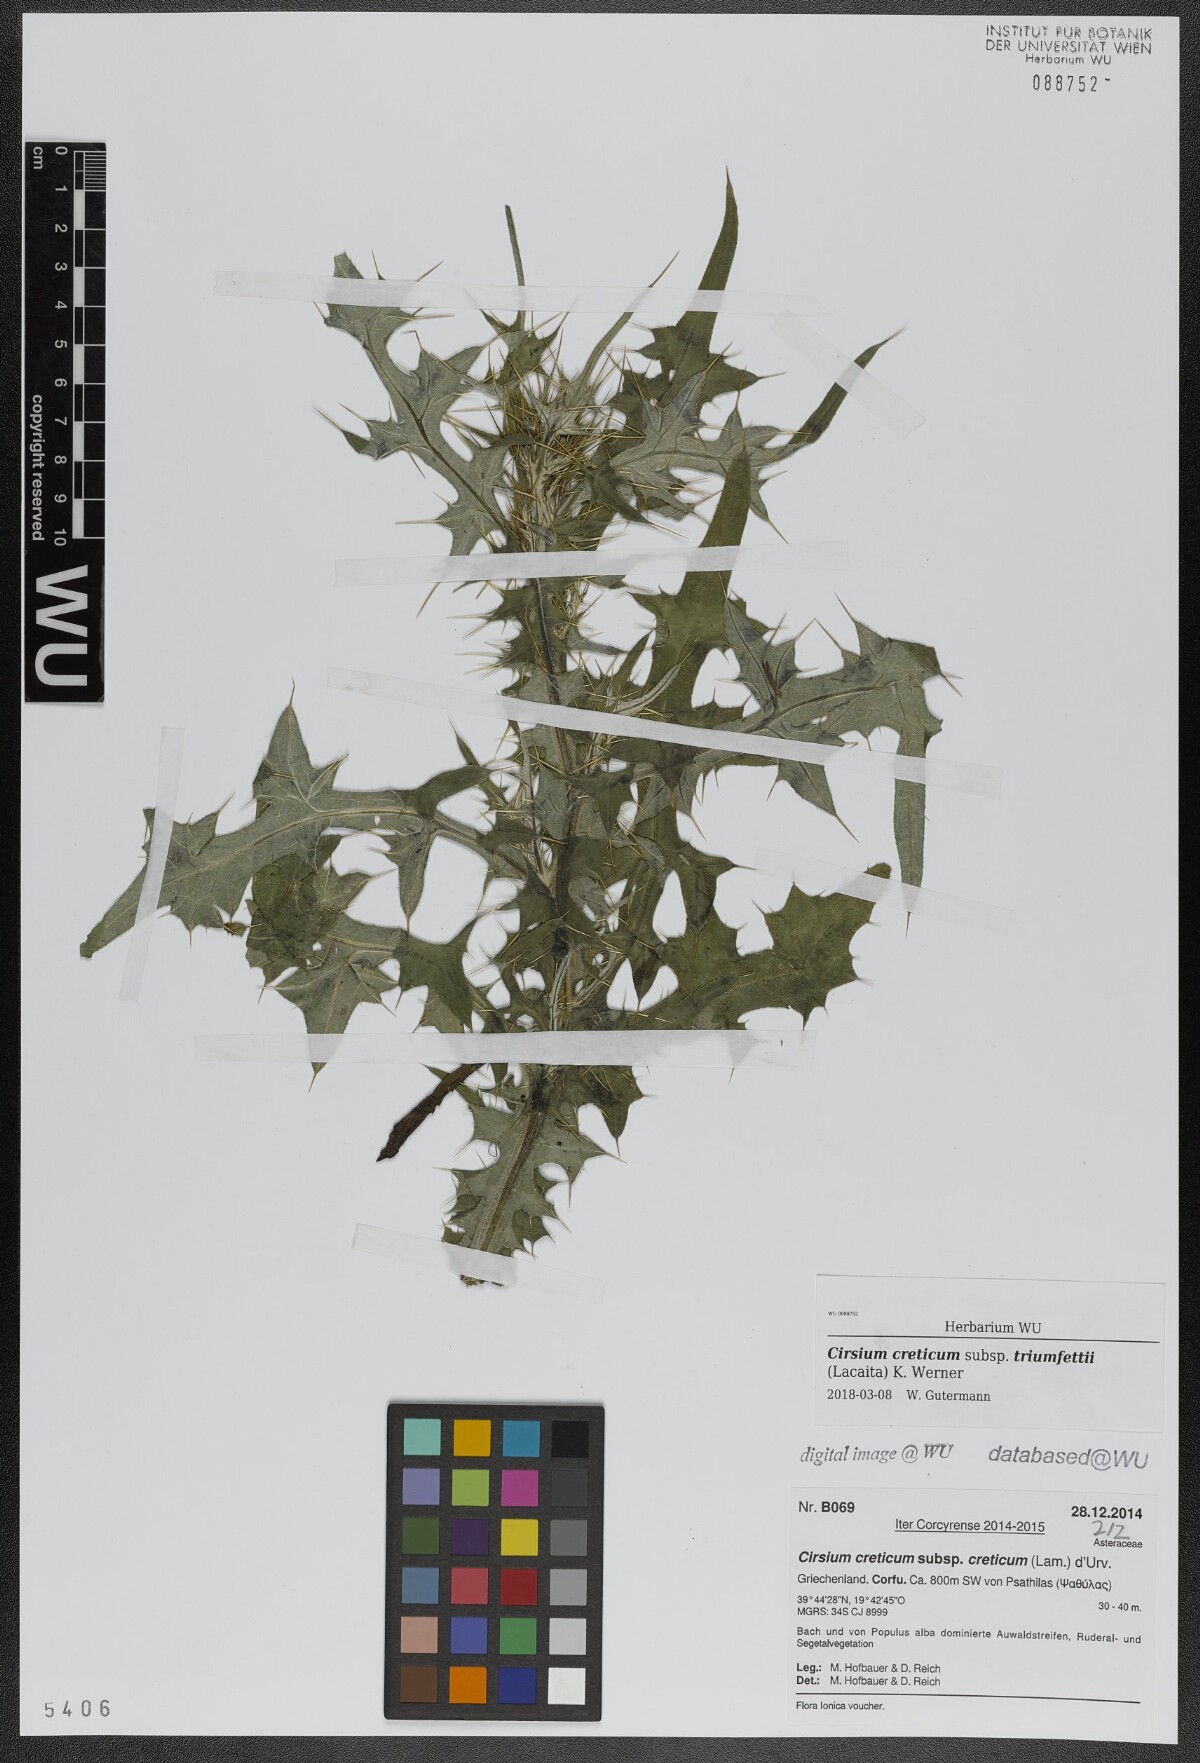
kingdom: Plantae
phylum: Tracheophyta
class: Magnoliopsida
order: Asterales
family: Asteraceae
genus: Cirsium
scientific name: Cirsium creticum
